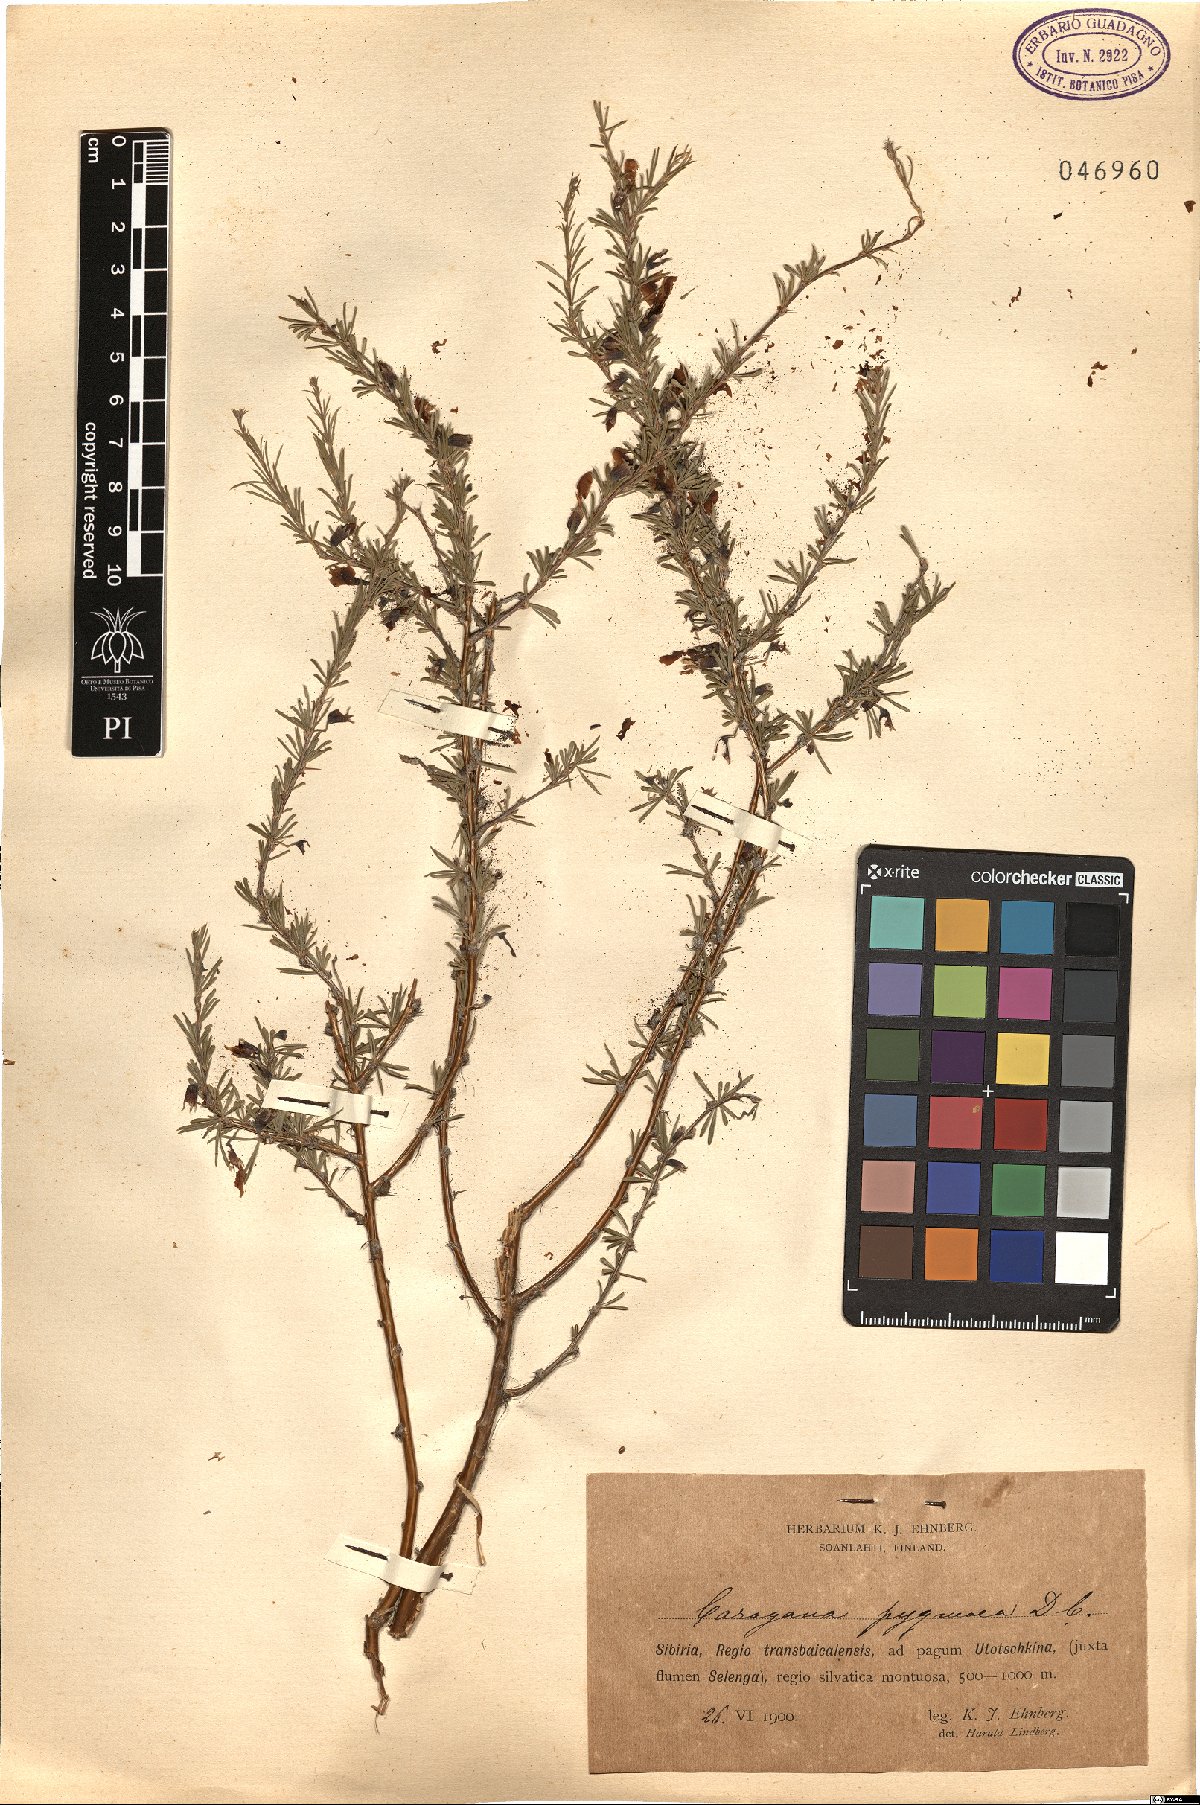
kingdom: Plantae
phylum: Tracheophyta
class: Magnoliopsida
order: Fabales
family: Fabaceae
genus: Caragana
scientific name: Caragana pygmaea
